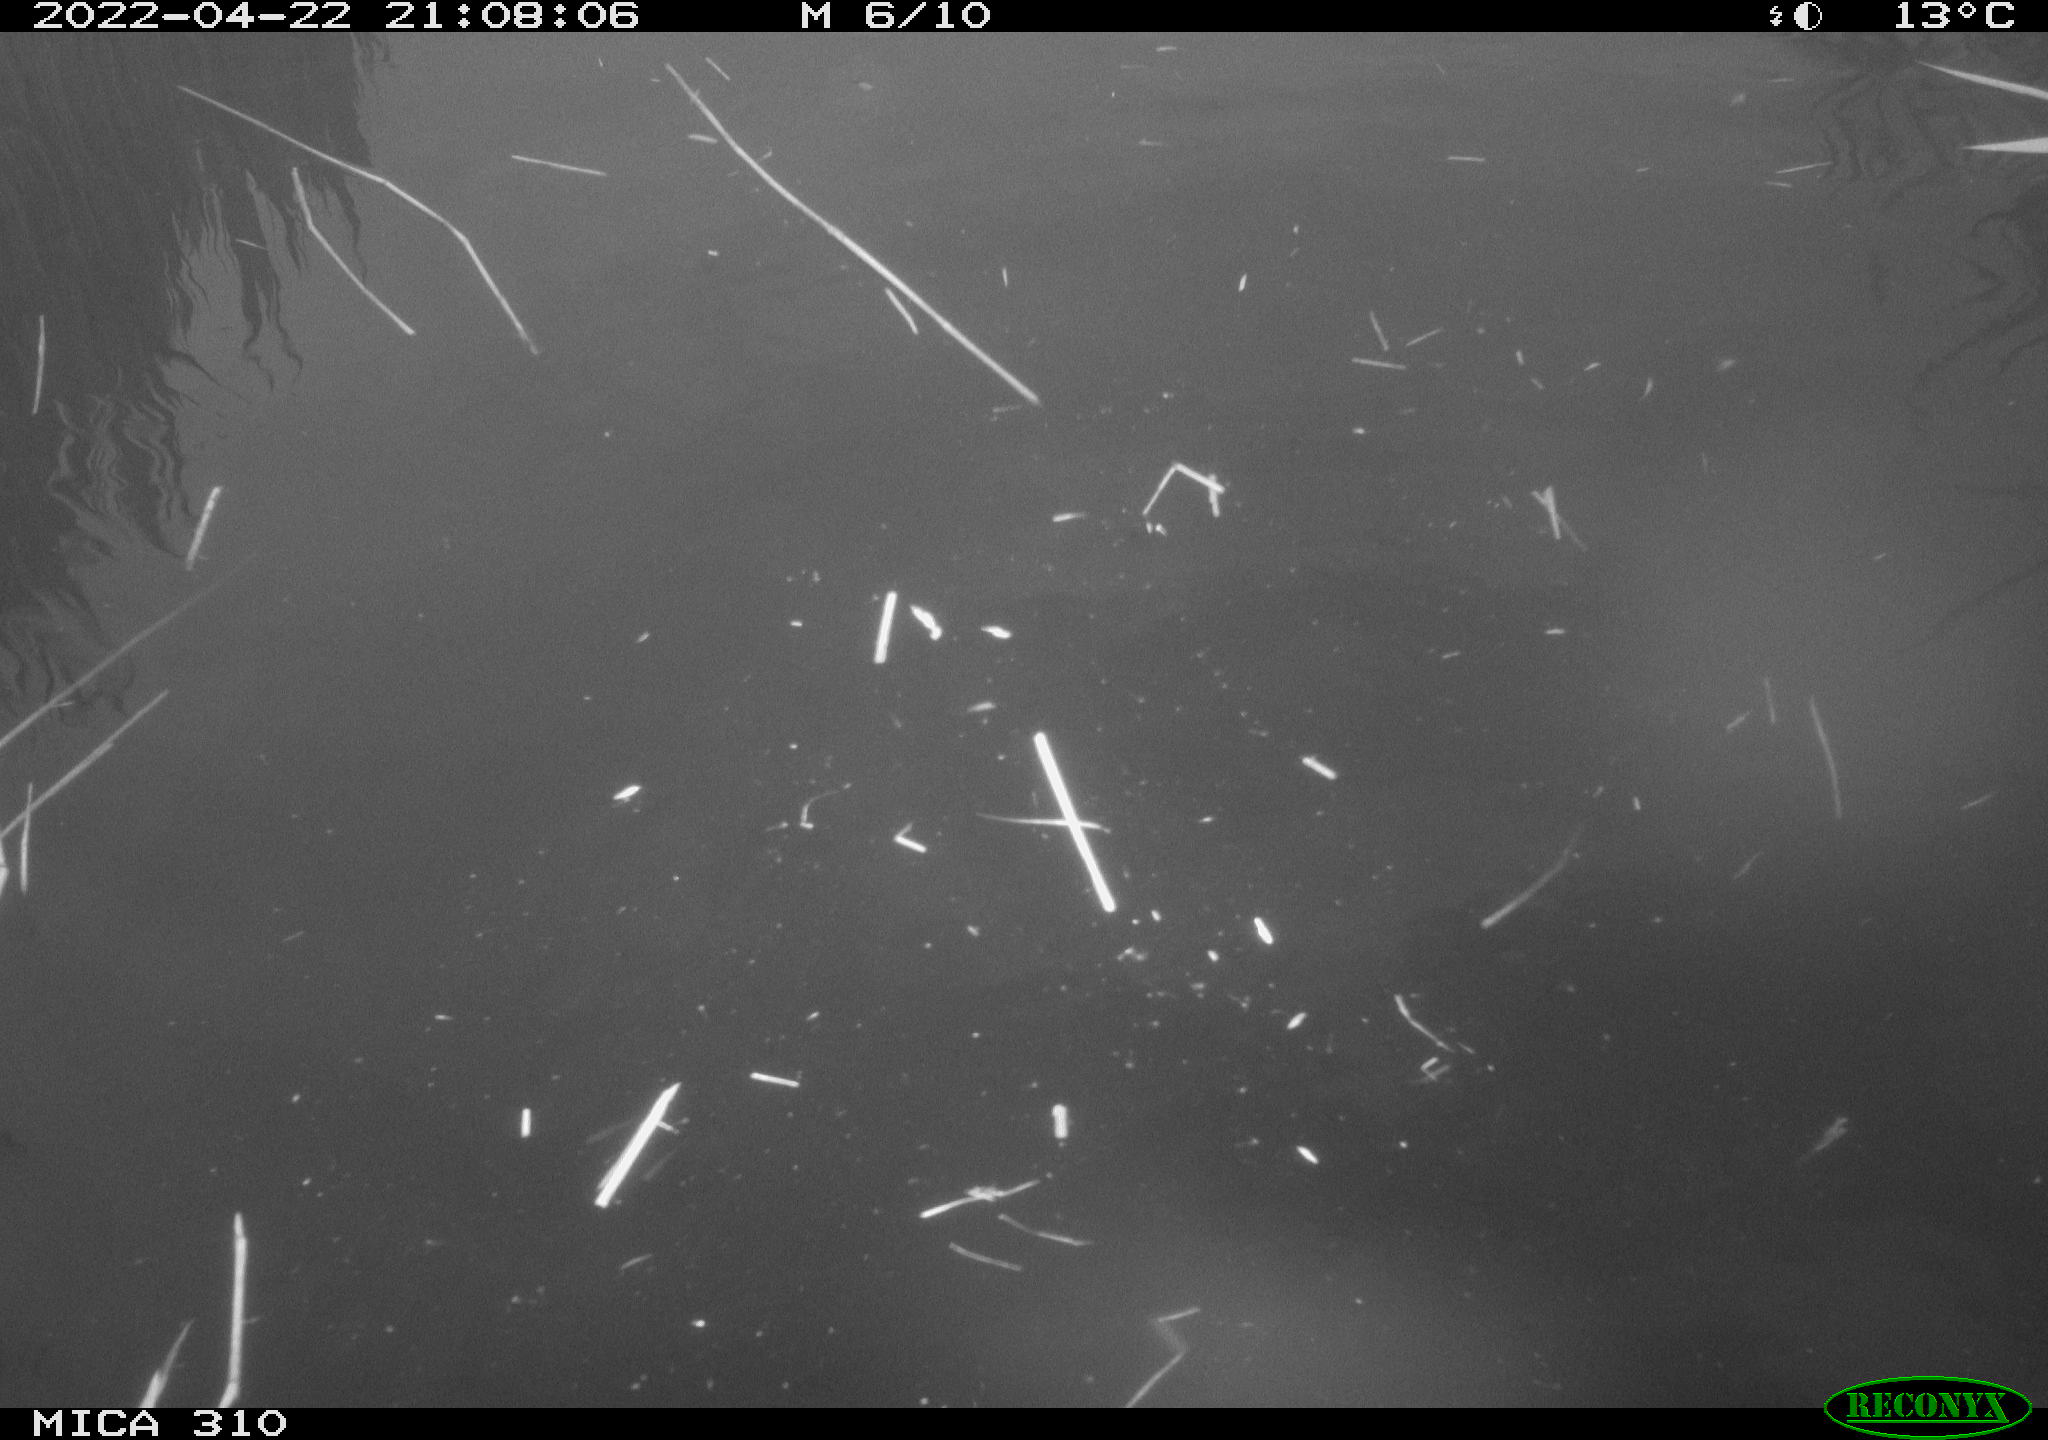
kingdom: Animalia
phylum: Chordata
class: Aves
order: Anseriformes
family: Anatidae
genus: Anas
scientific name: Anas platyrhynchos
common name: Mallard
